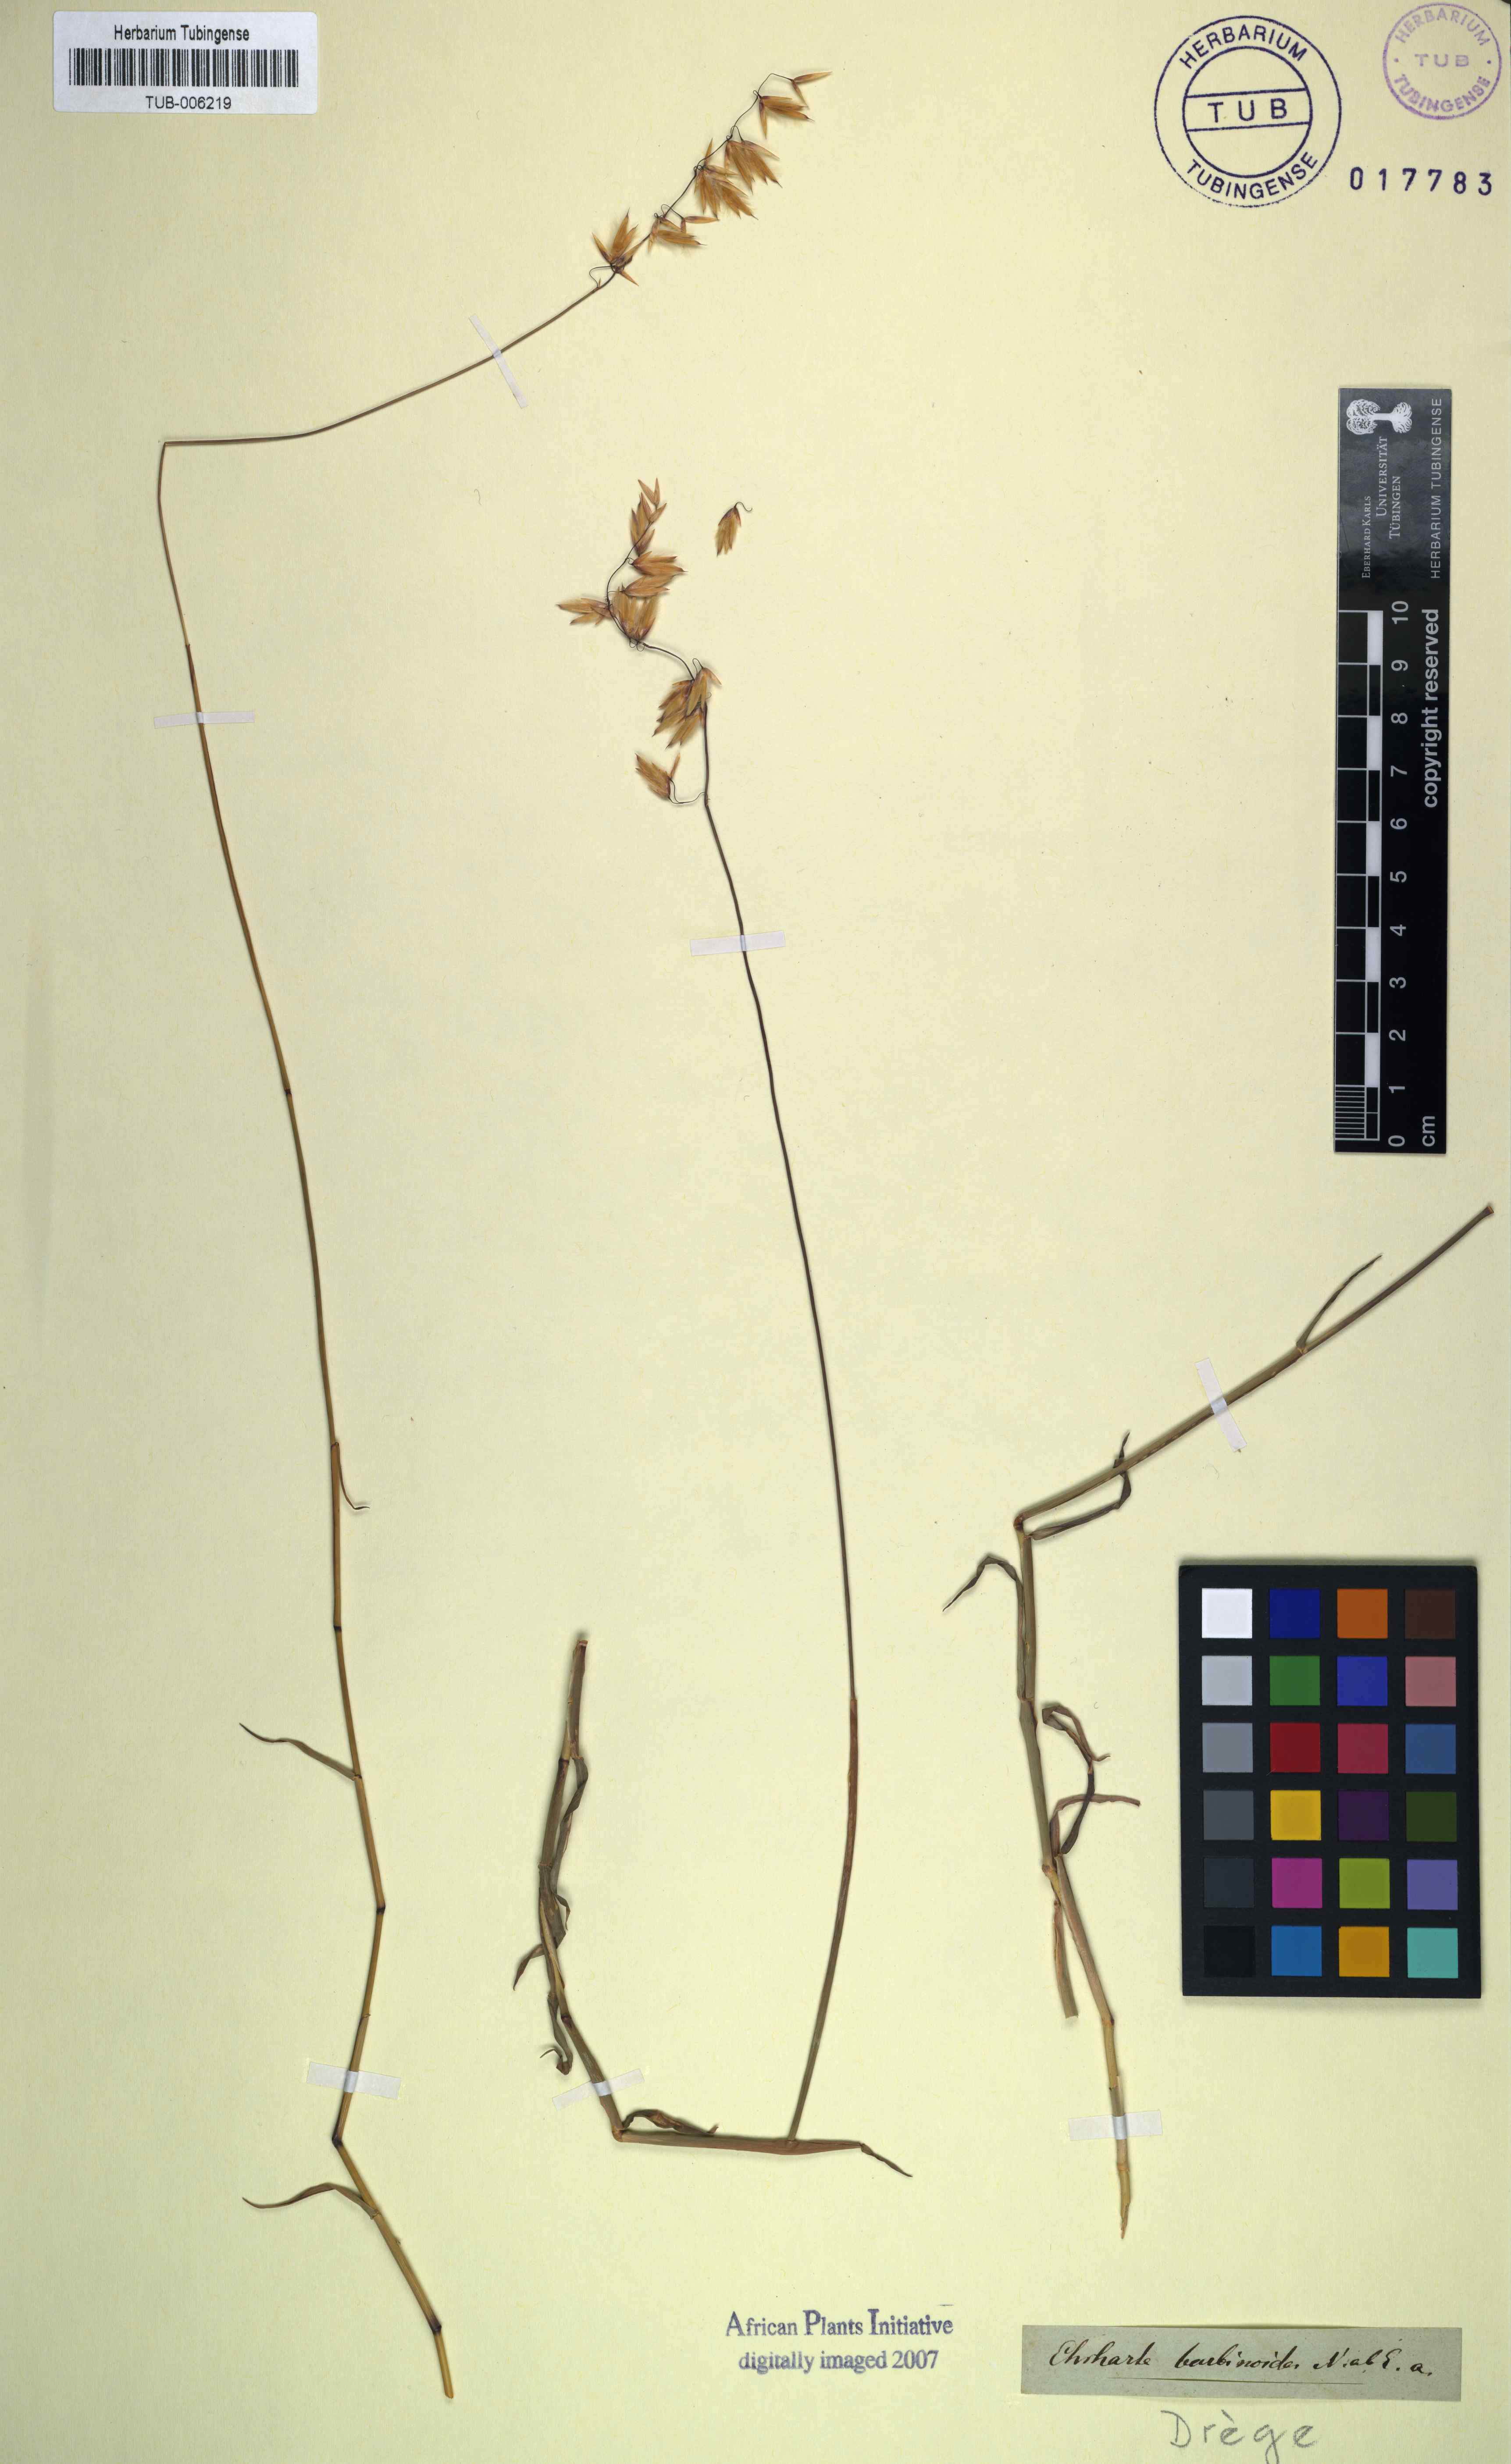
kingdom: Plantae
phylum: Tracheophyta
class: Liliopsida
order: Poales
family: Poaceae
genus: Ehrharta
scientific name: Ehrharta barbinodis
